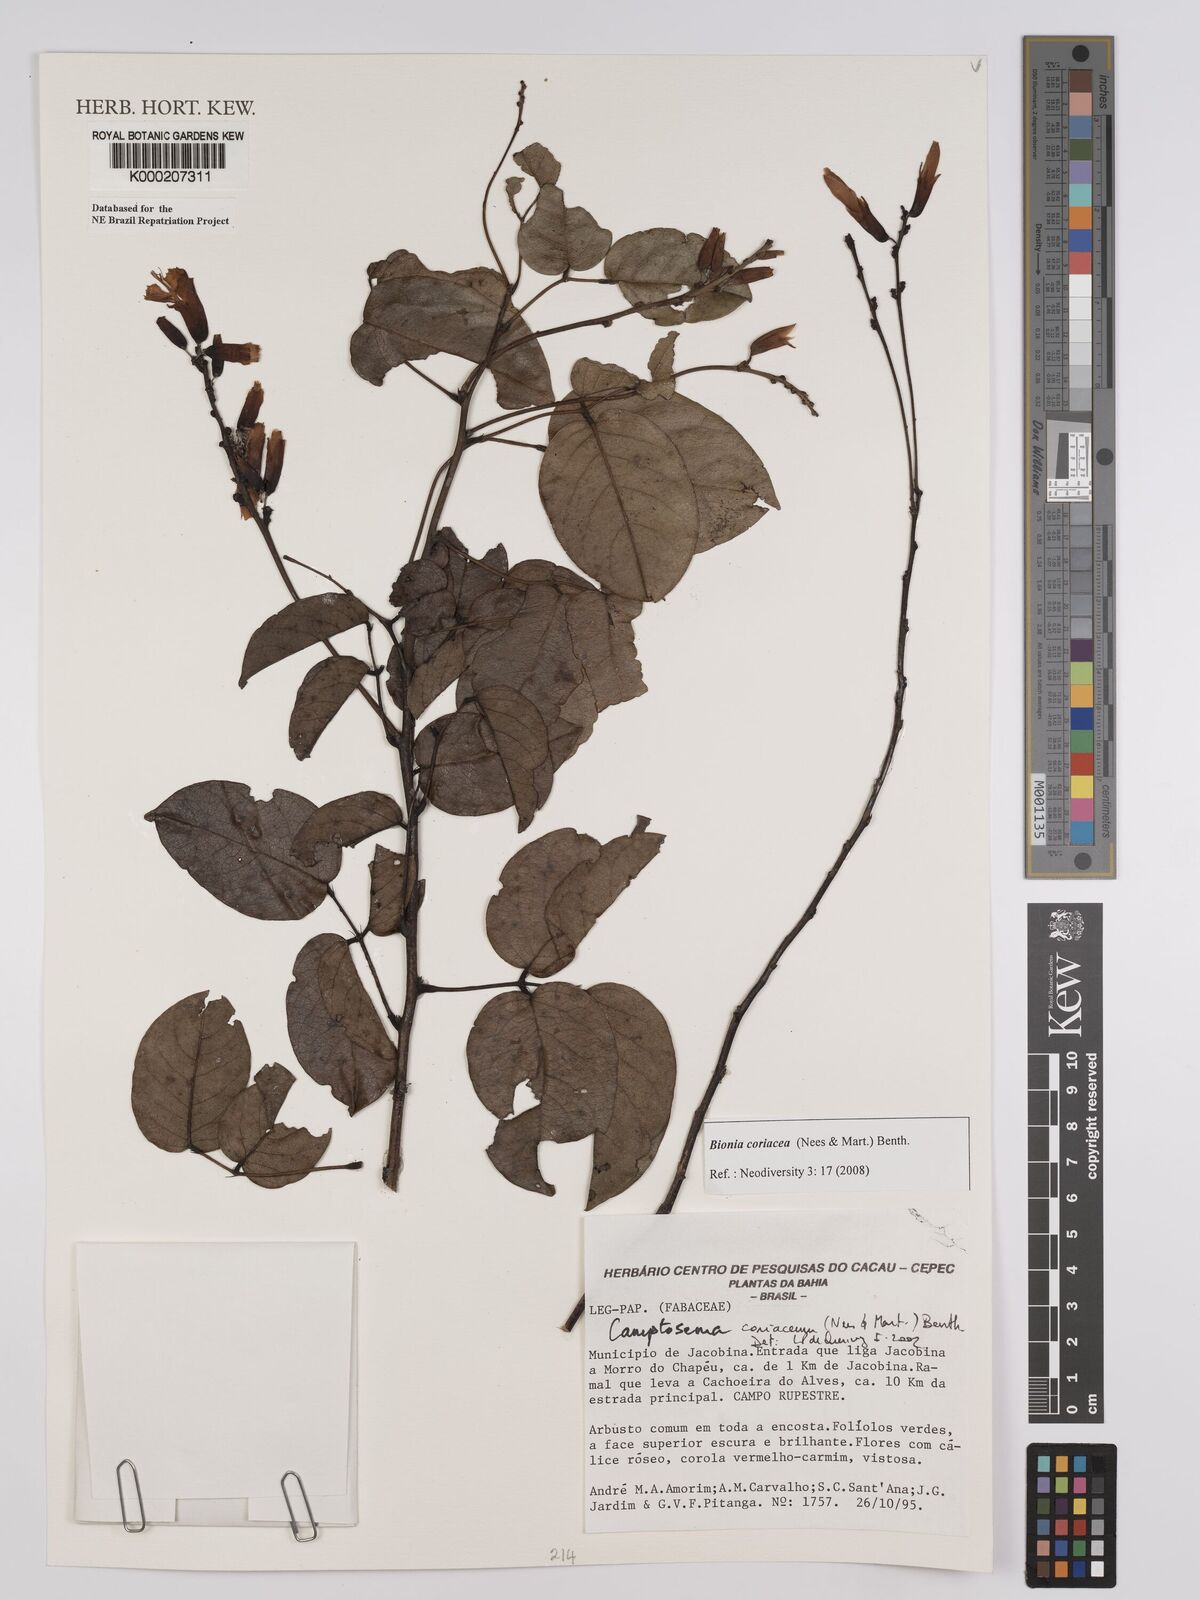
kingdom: Plantae
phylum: Tracheophyta
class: Magnoliopsida
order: Fabales
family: Fabaceae
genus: Camptosema
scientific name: Camptosema coriaceum
